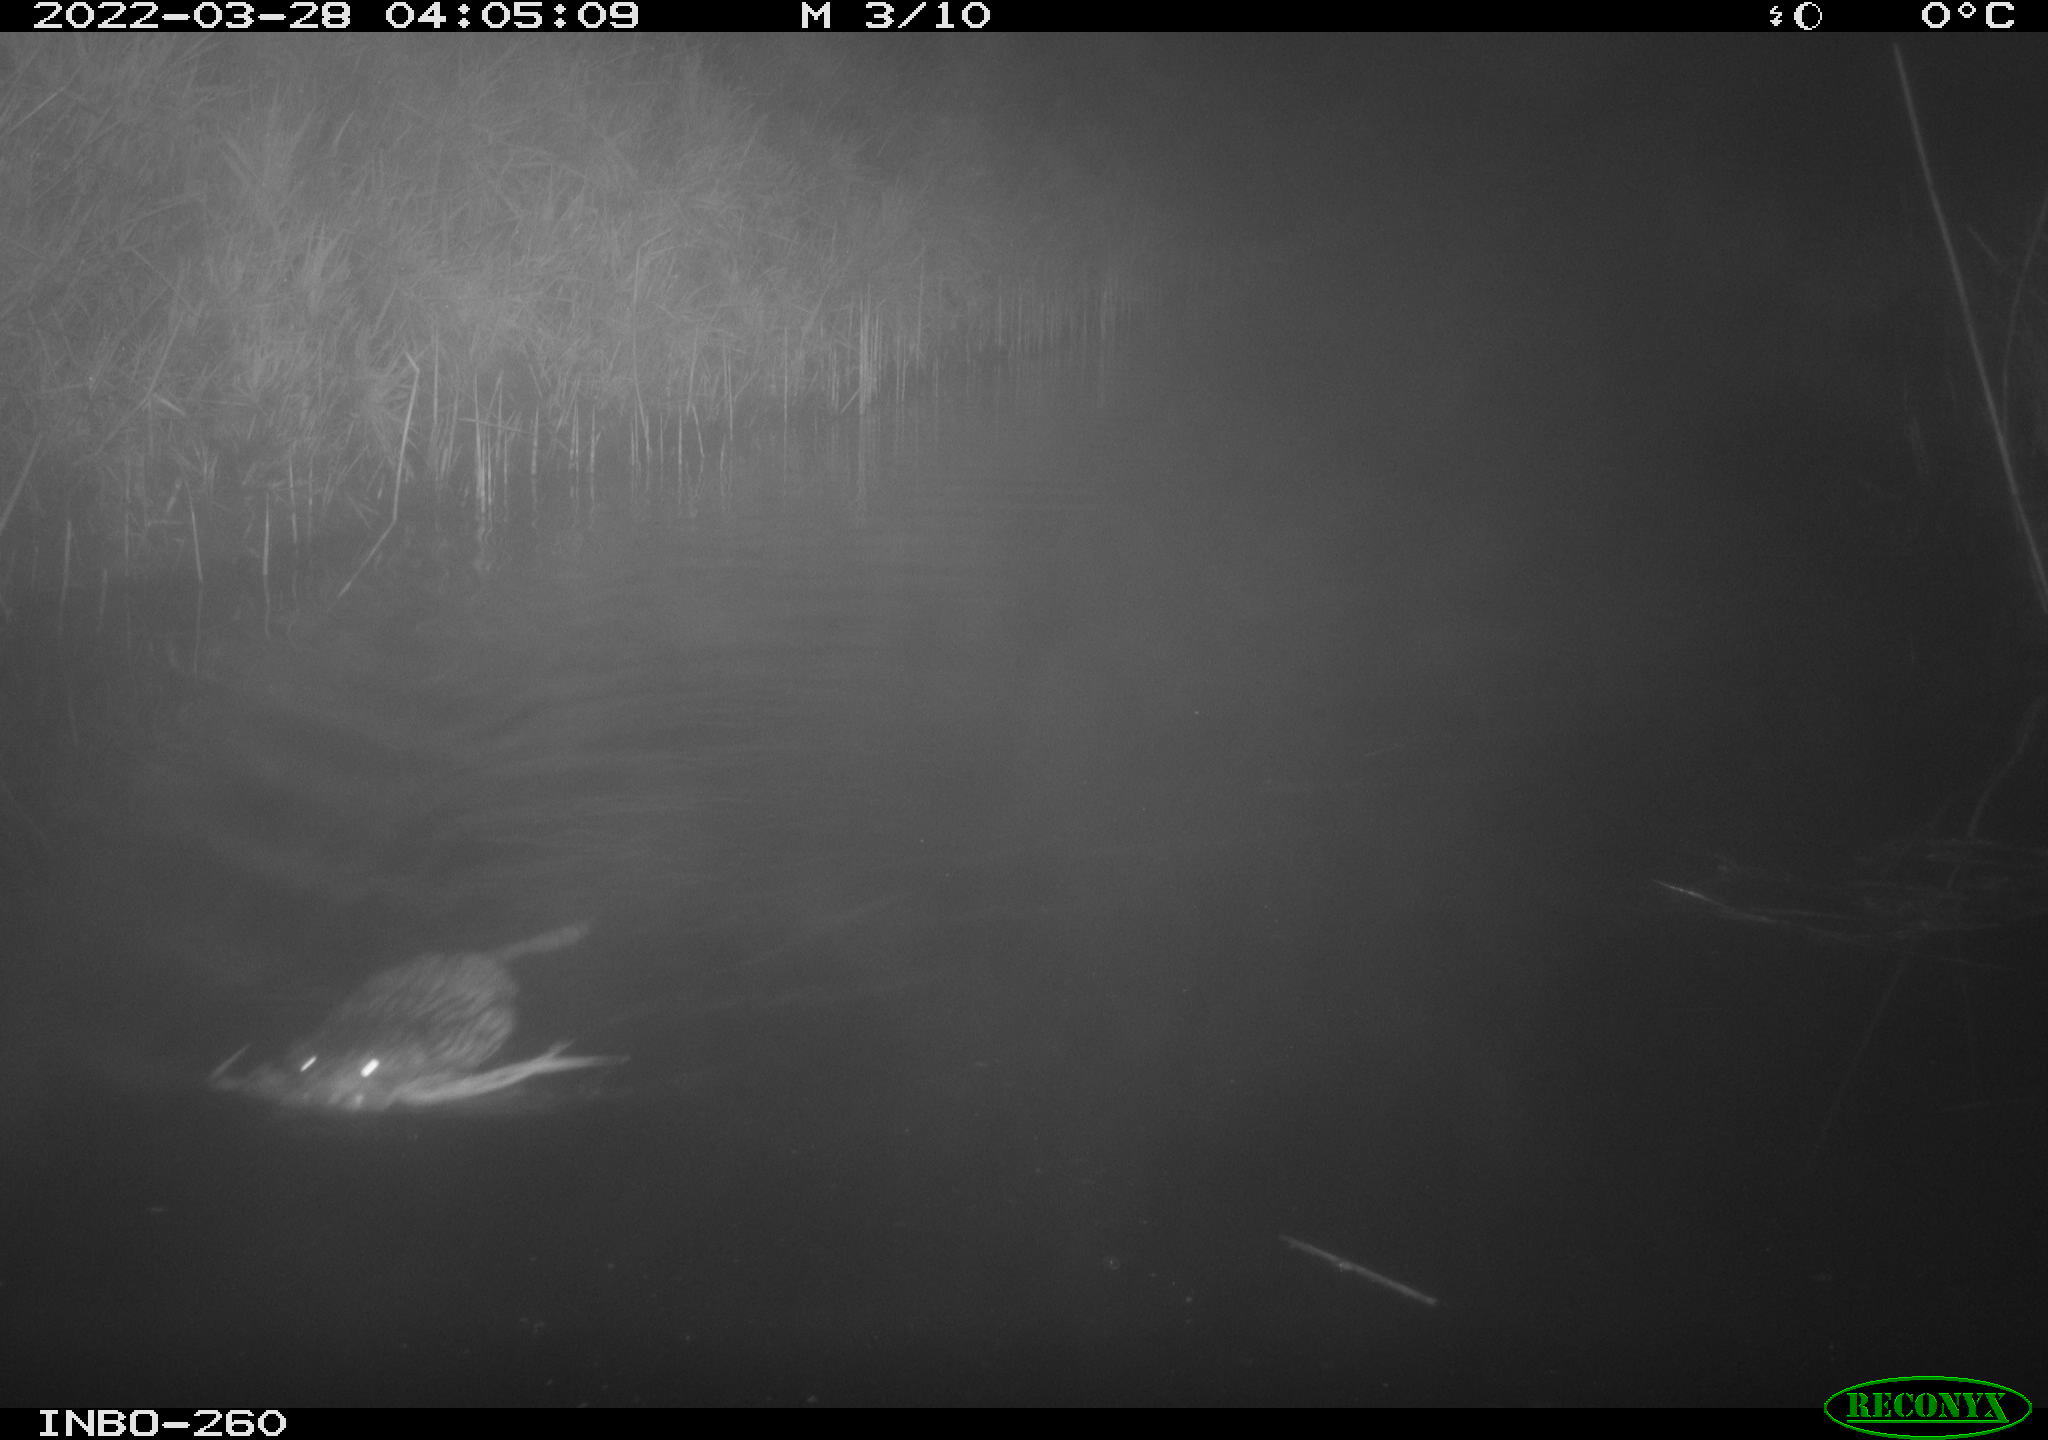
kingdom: Animalia
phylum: Chordata
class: Mammalia
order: Rodentia
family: Cricetidae
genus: Ondatra
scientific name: Ondatra zibethicus
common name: Muskrat
